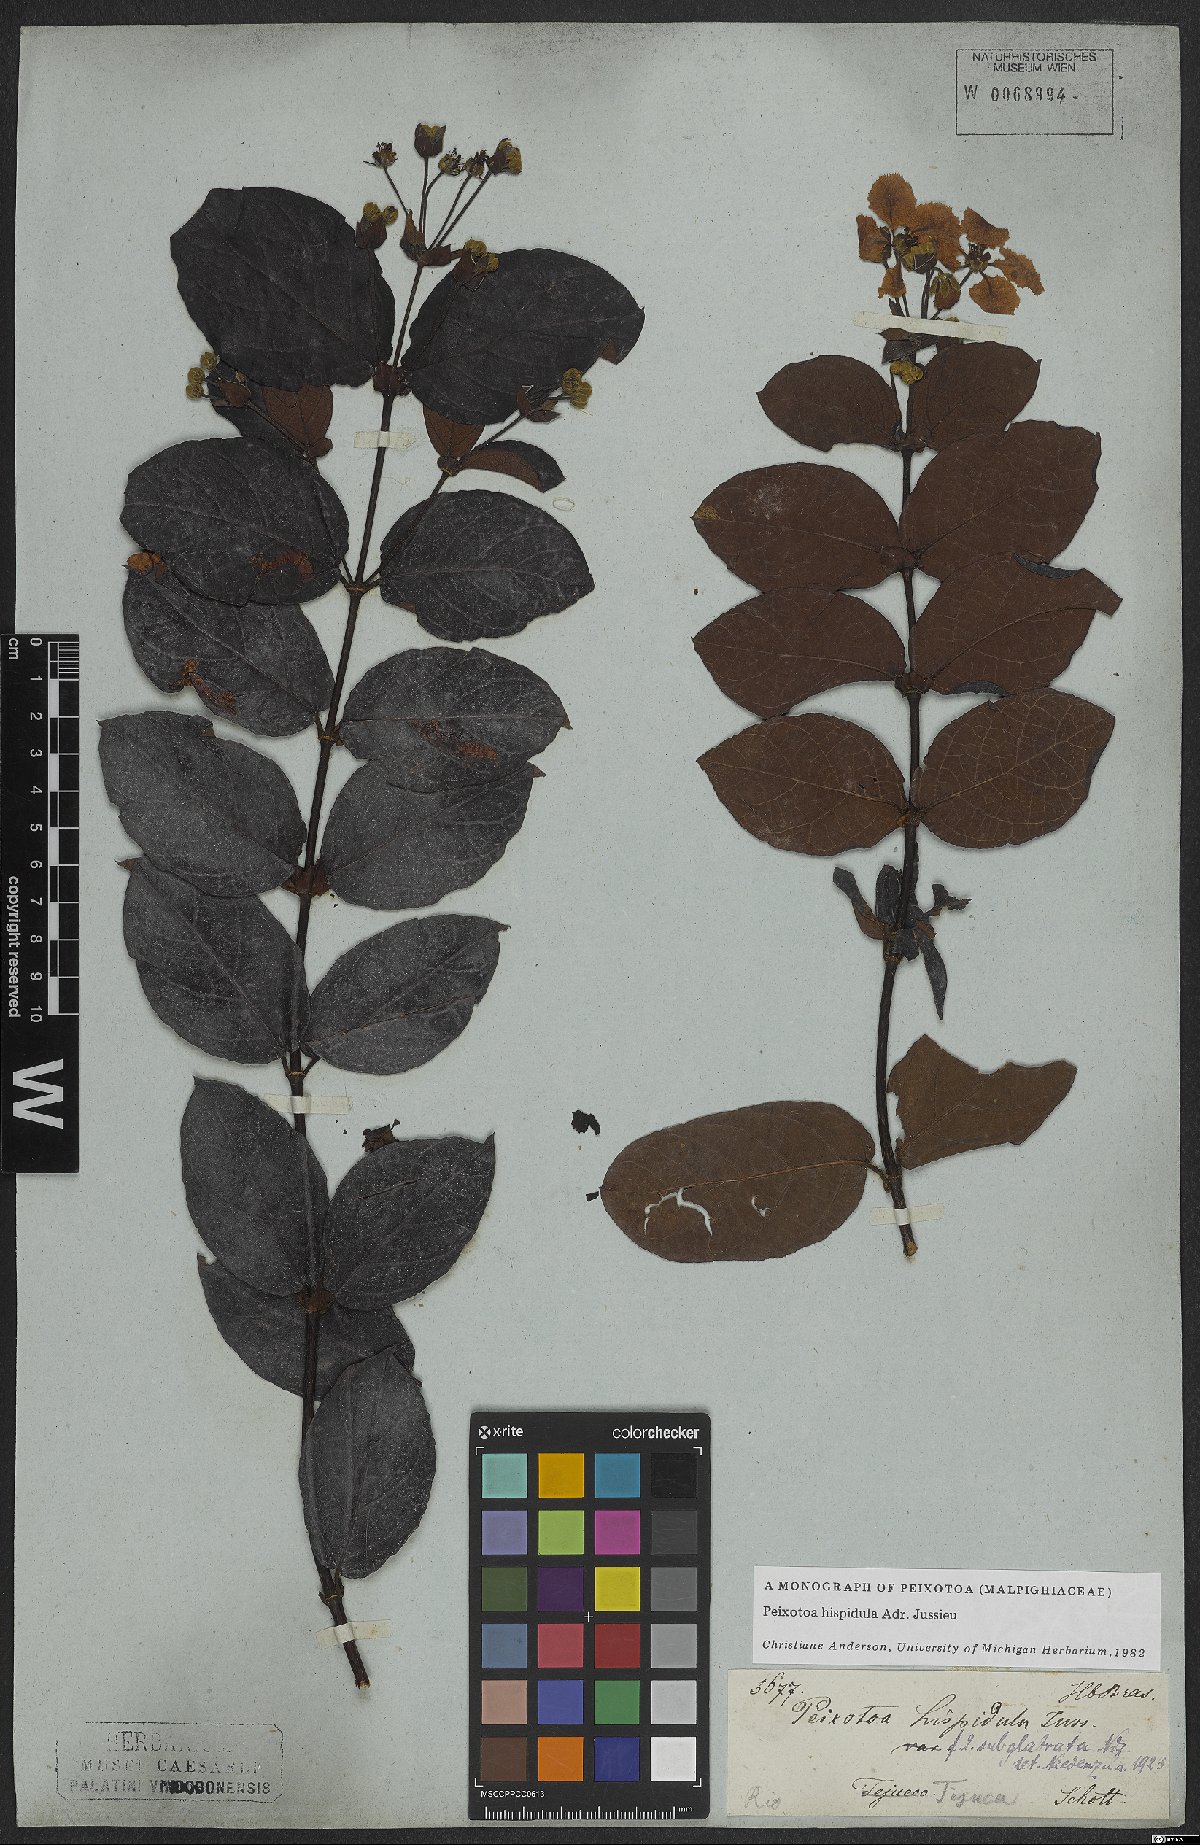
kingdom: Plantae
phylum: Tracheophyta
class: Magnoliopsida
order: Malpighiales
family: Malpighiaceae
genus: Peixotoa
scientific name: Peixotoa hispidula
